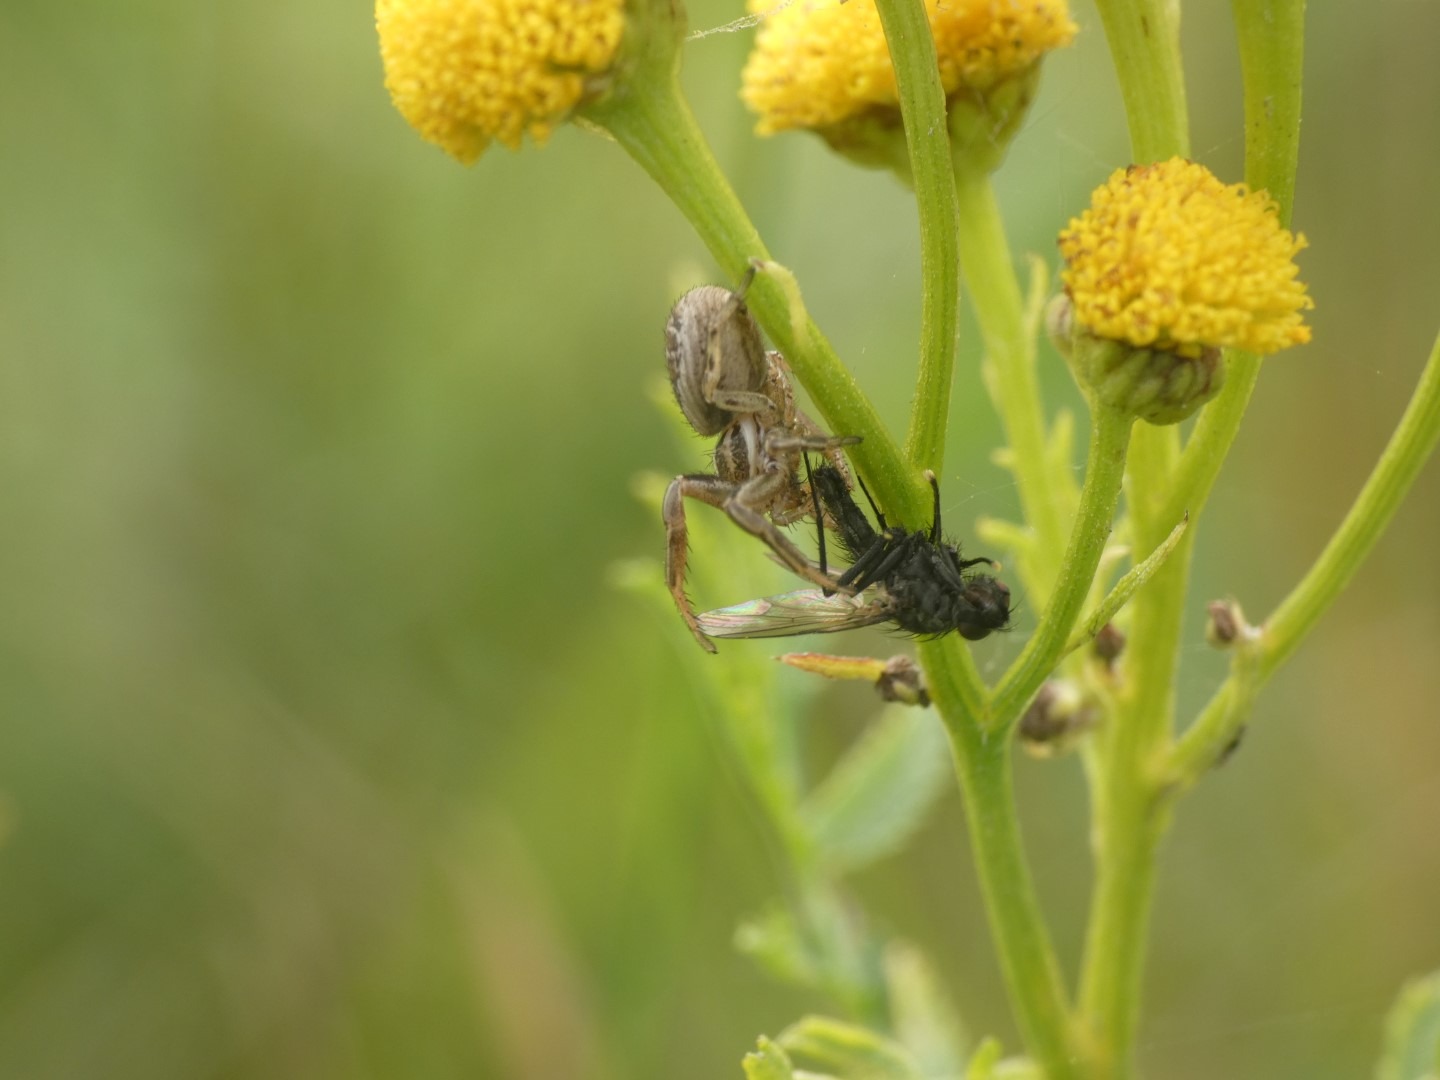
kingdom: Animalia
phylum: Arthropoda
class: Arachnida
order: Araneae
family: Thomisidae
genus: Xysticus
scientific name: Xysticus
